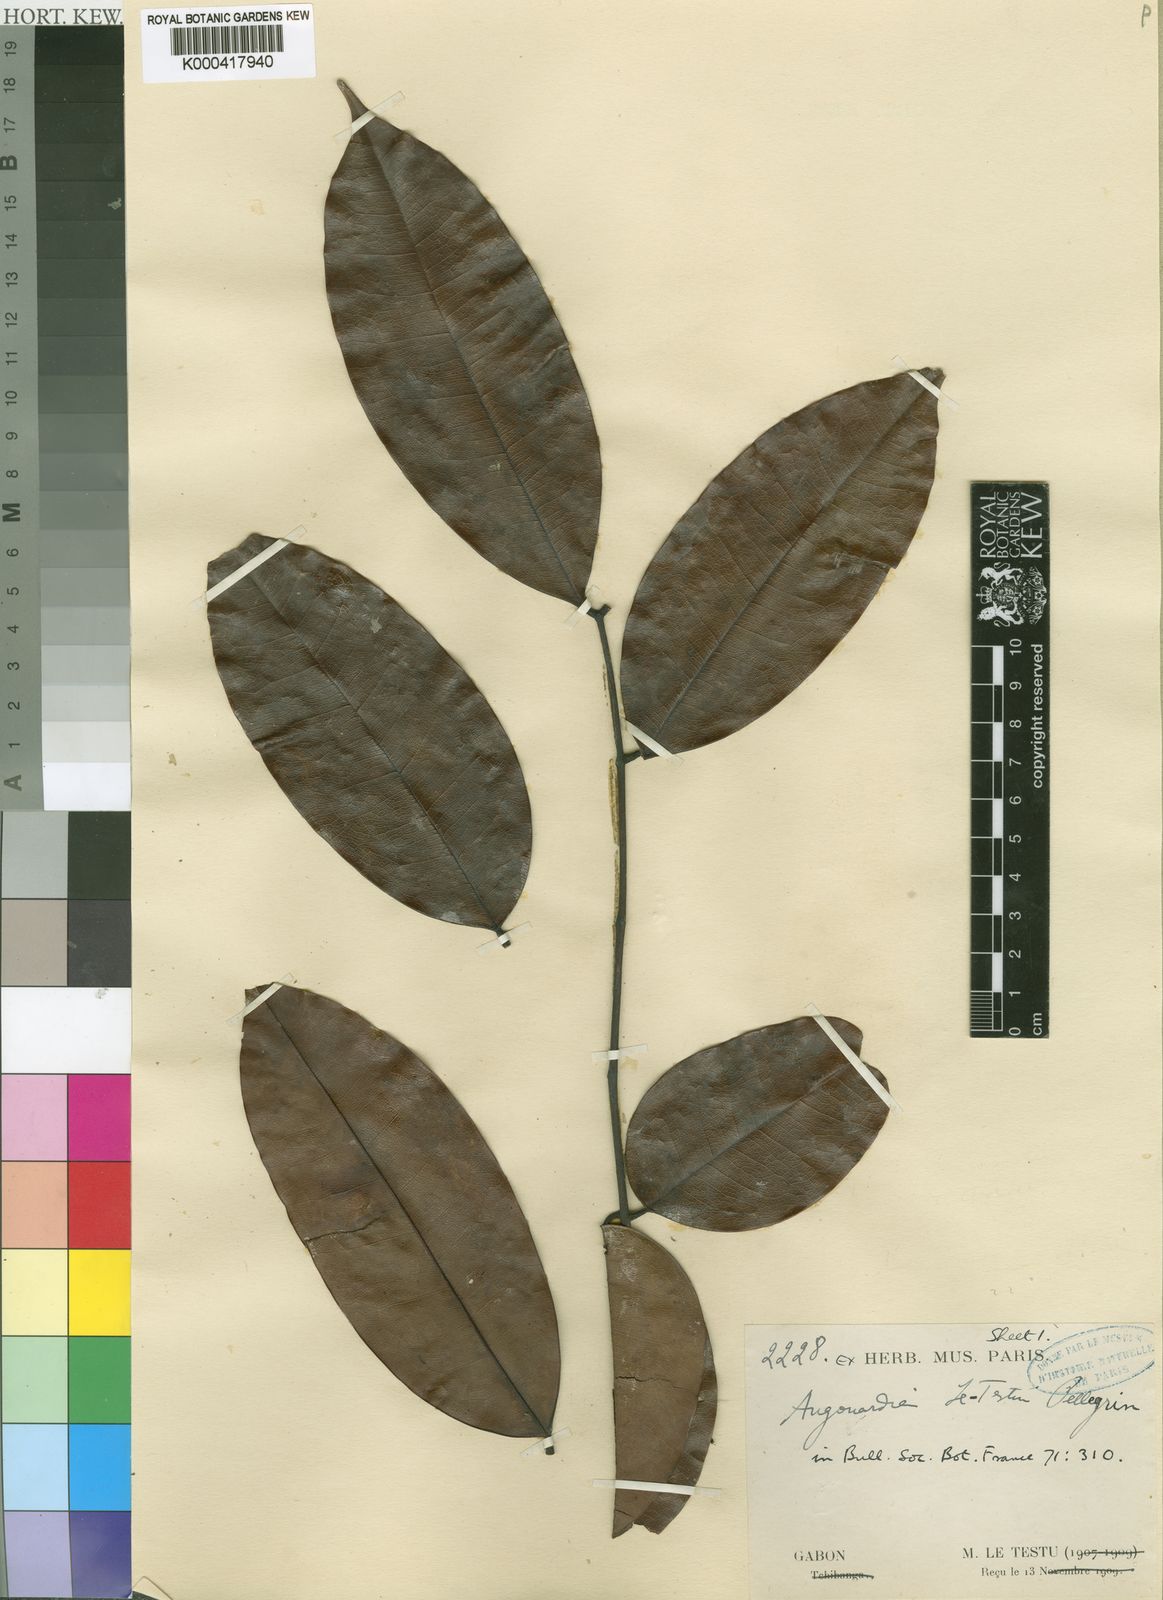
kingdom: Plantae
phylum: Tracheophyta
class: Magnoliopsida
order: Fabales
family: Fabaceae
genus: Augouardia
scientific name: Augouardia letestui
